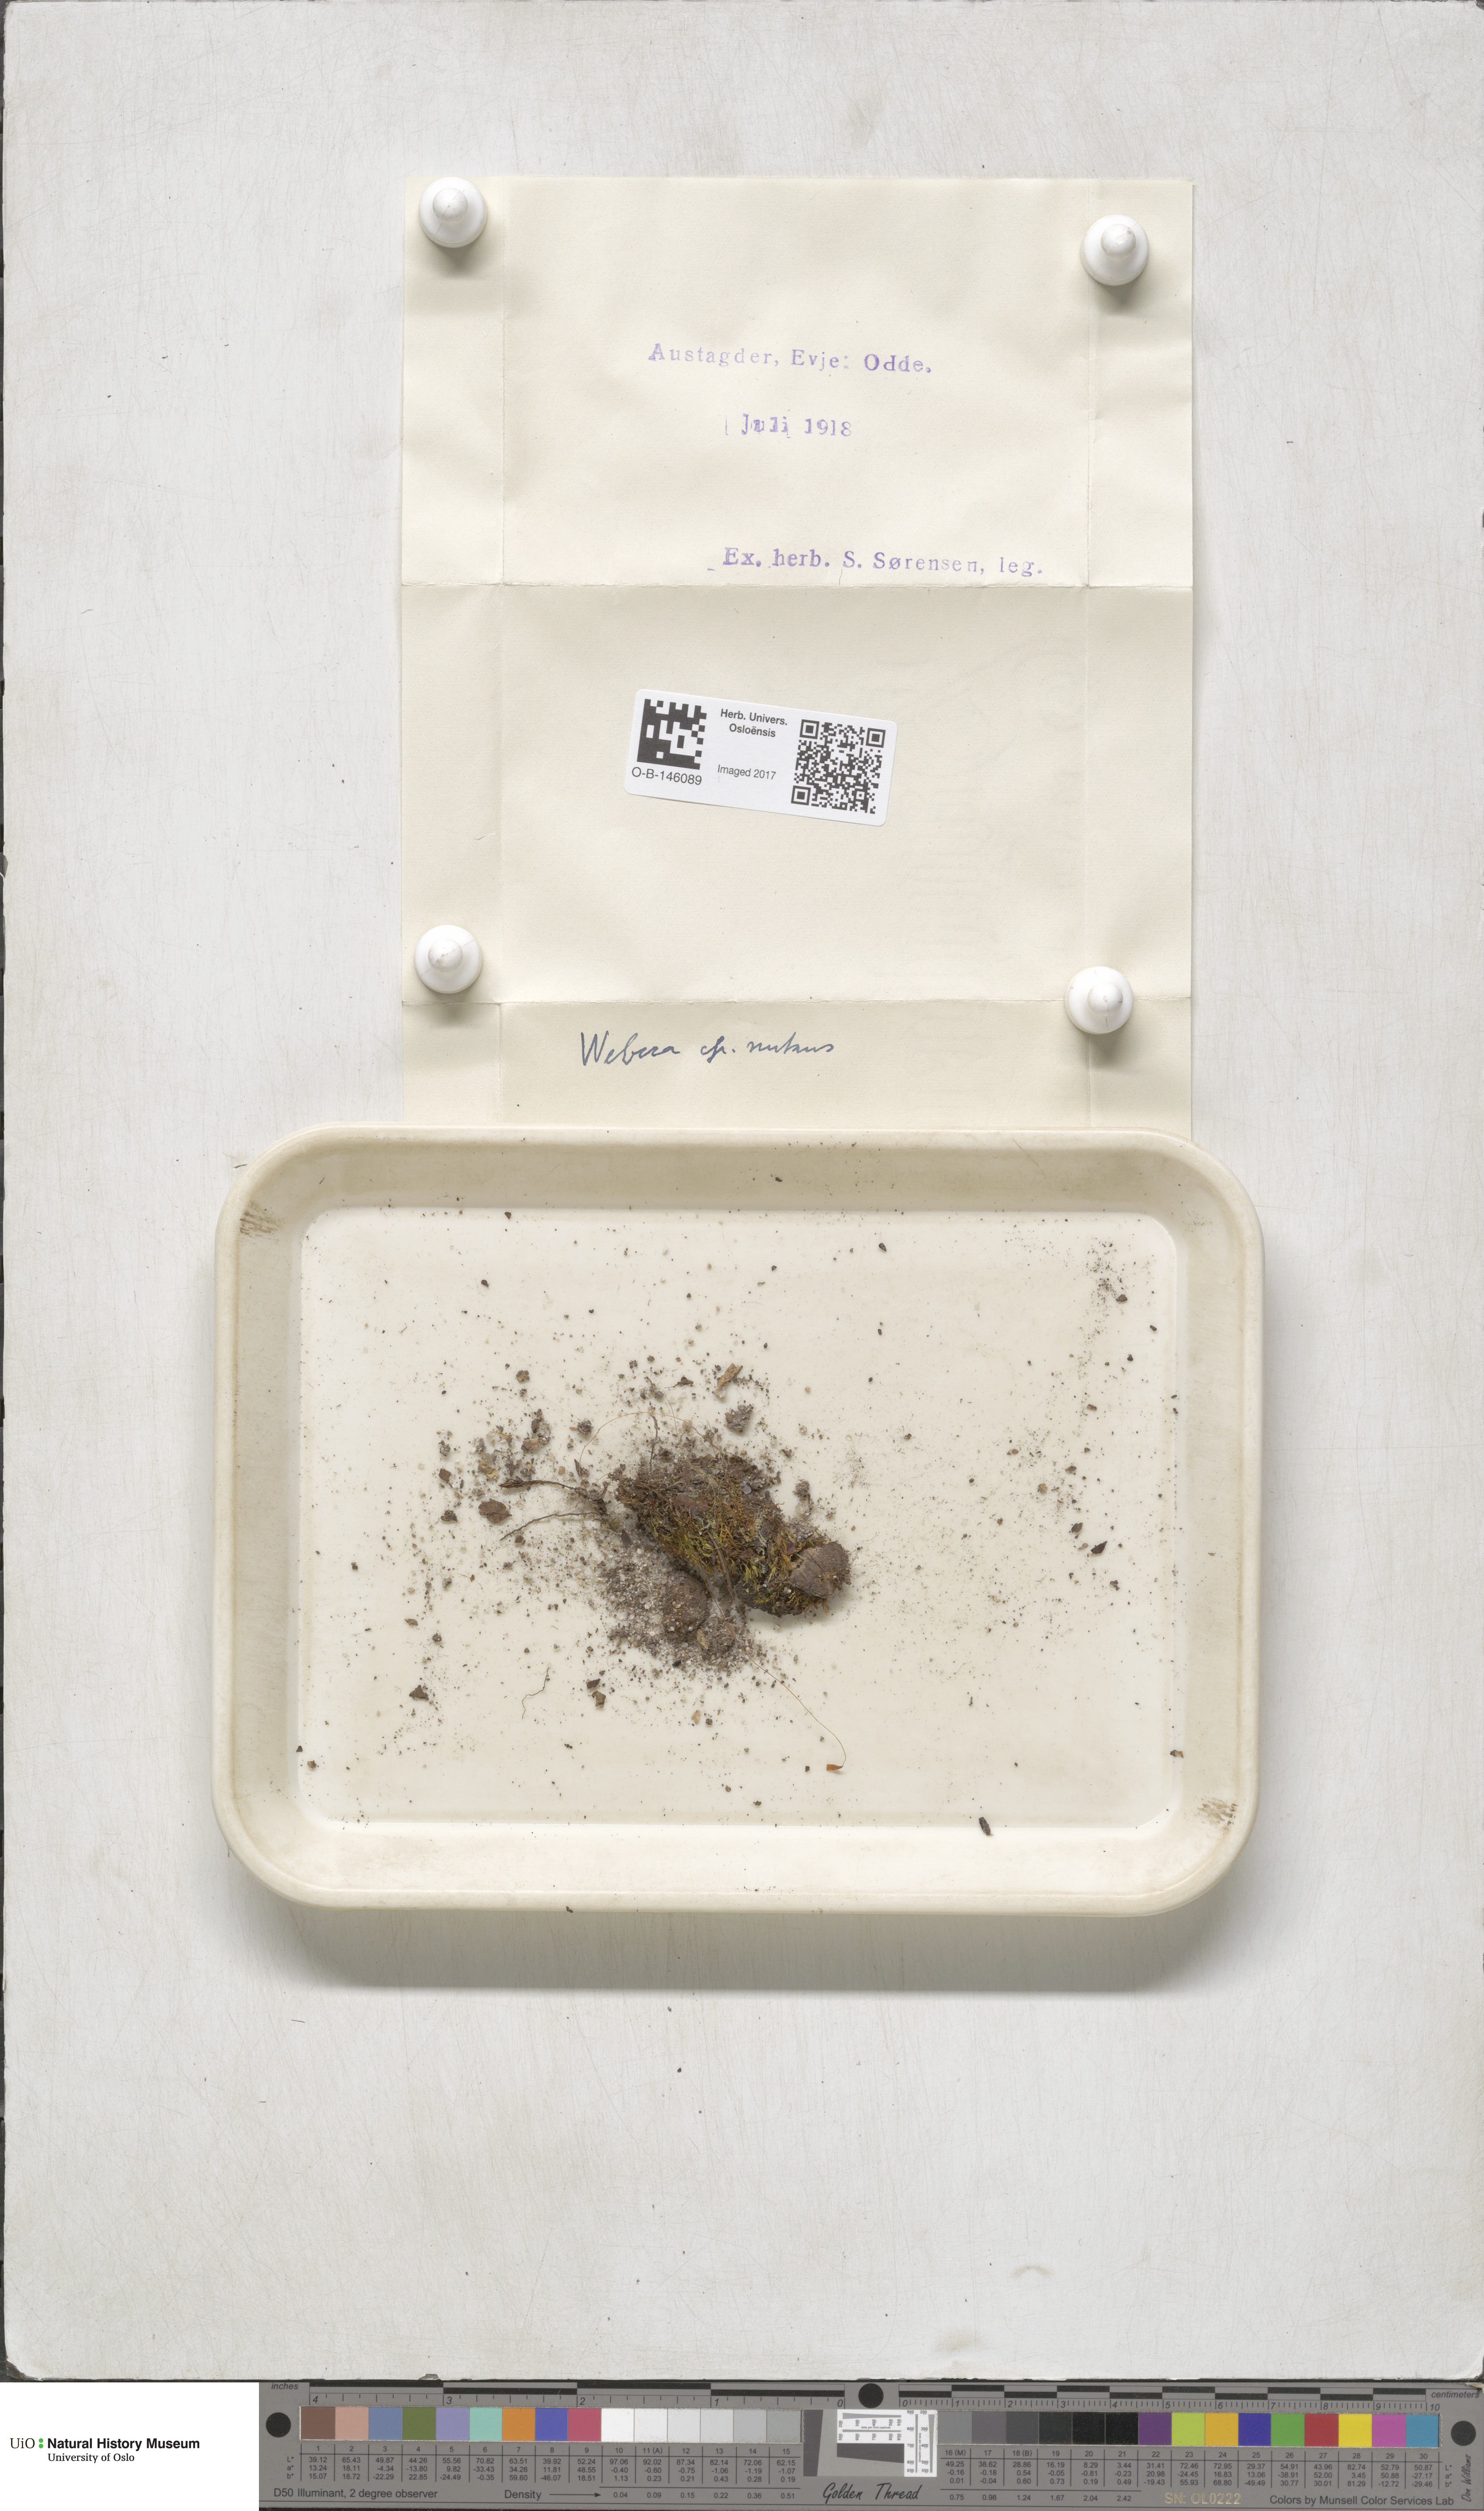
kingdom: Plantae
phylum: Bryophyta
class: Bryopsida
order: Bryales
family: Mniaceae
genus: Pohlia
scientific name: Pohlia nutans
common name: Nodding thread-moss
